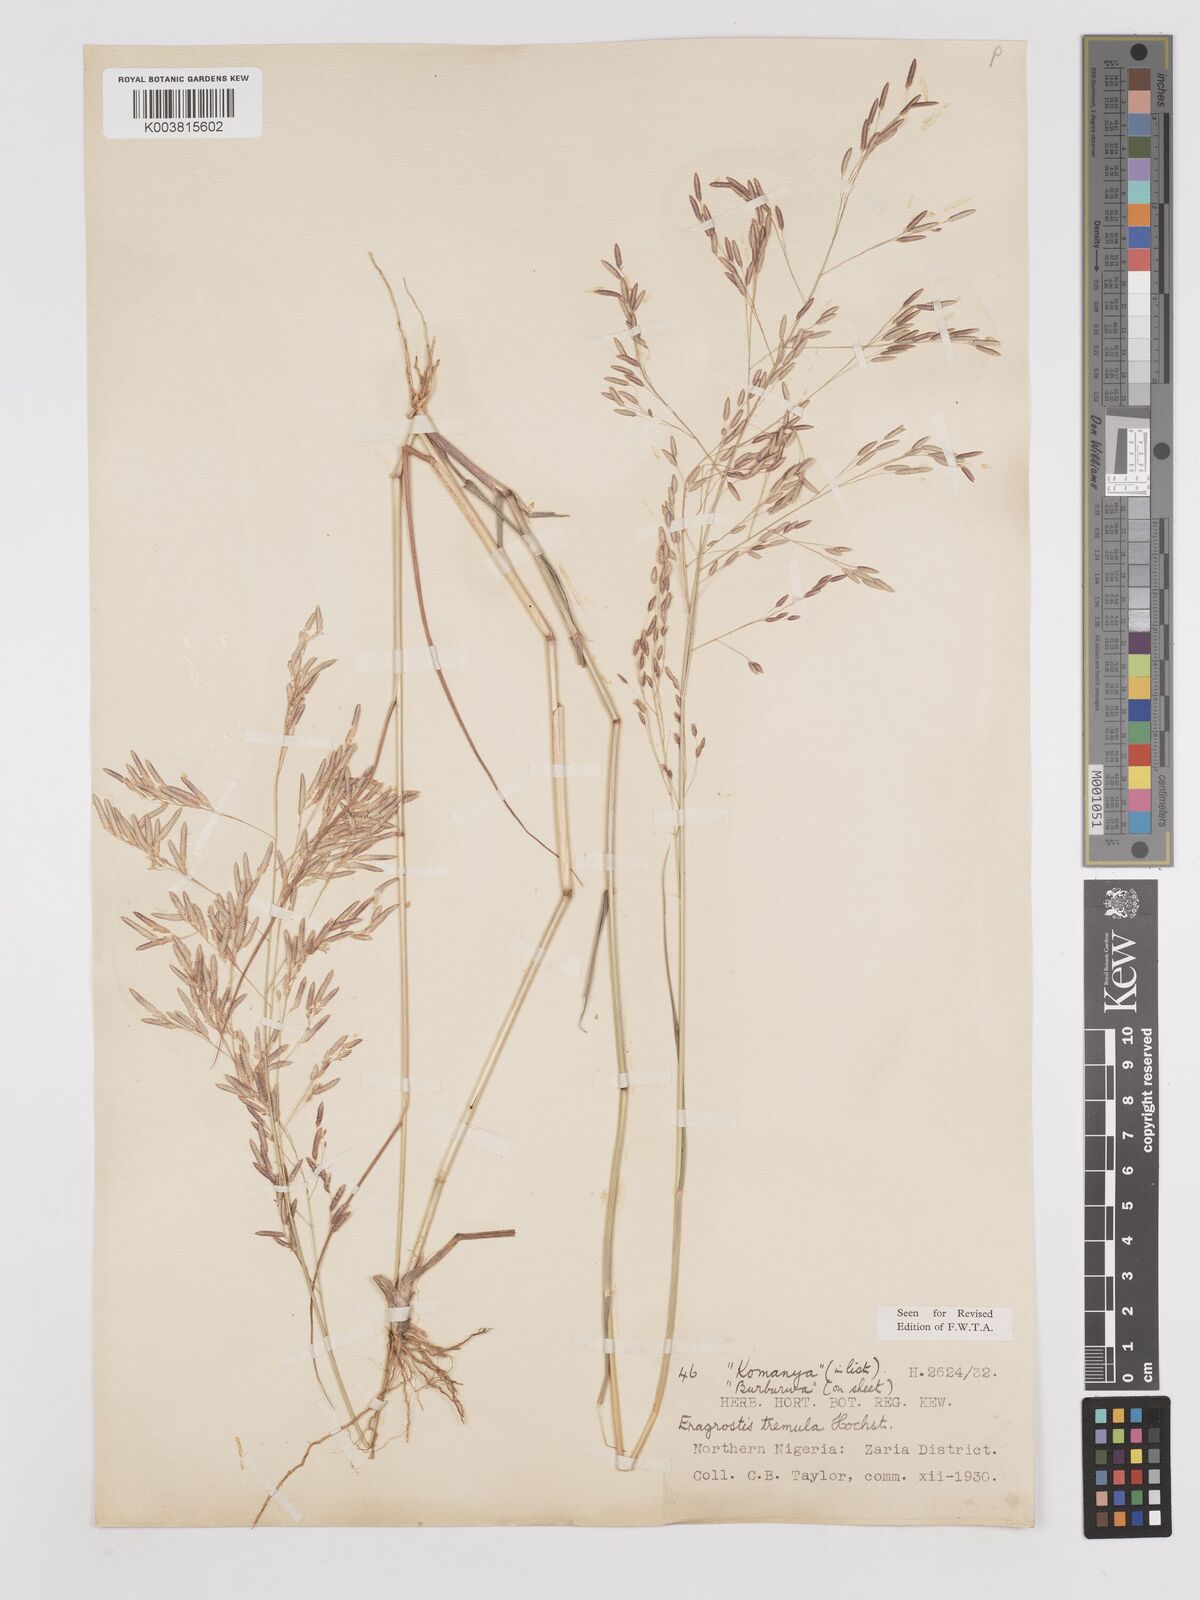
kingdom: Plantae
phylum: Tracheophyta
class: Liliopsida
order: Poales
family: Poaceae
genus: Eragrostis
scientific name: Eragrostis tremula
